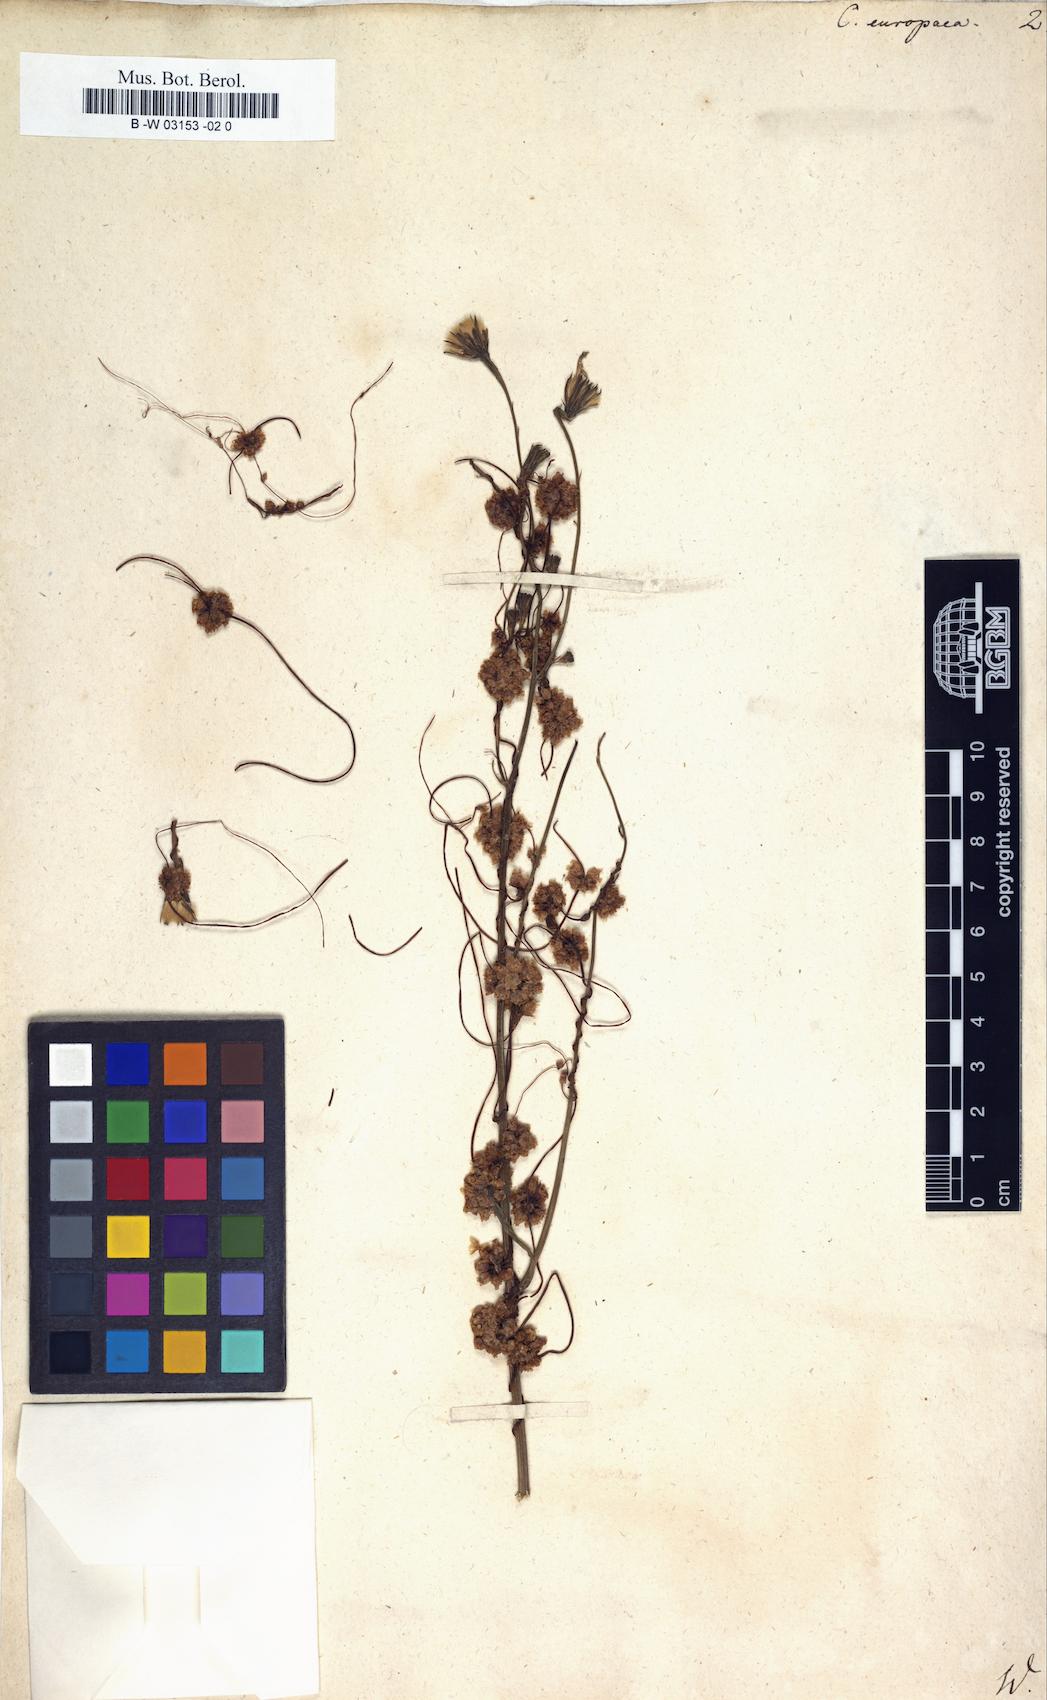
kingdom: Plantae
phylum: Tracheophyta
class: Magnoliopsida
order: Solanales
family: Convolvulaceae
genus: Cuscuta
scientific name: Cuscuta europaea
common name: Greater dodder
